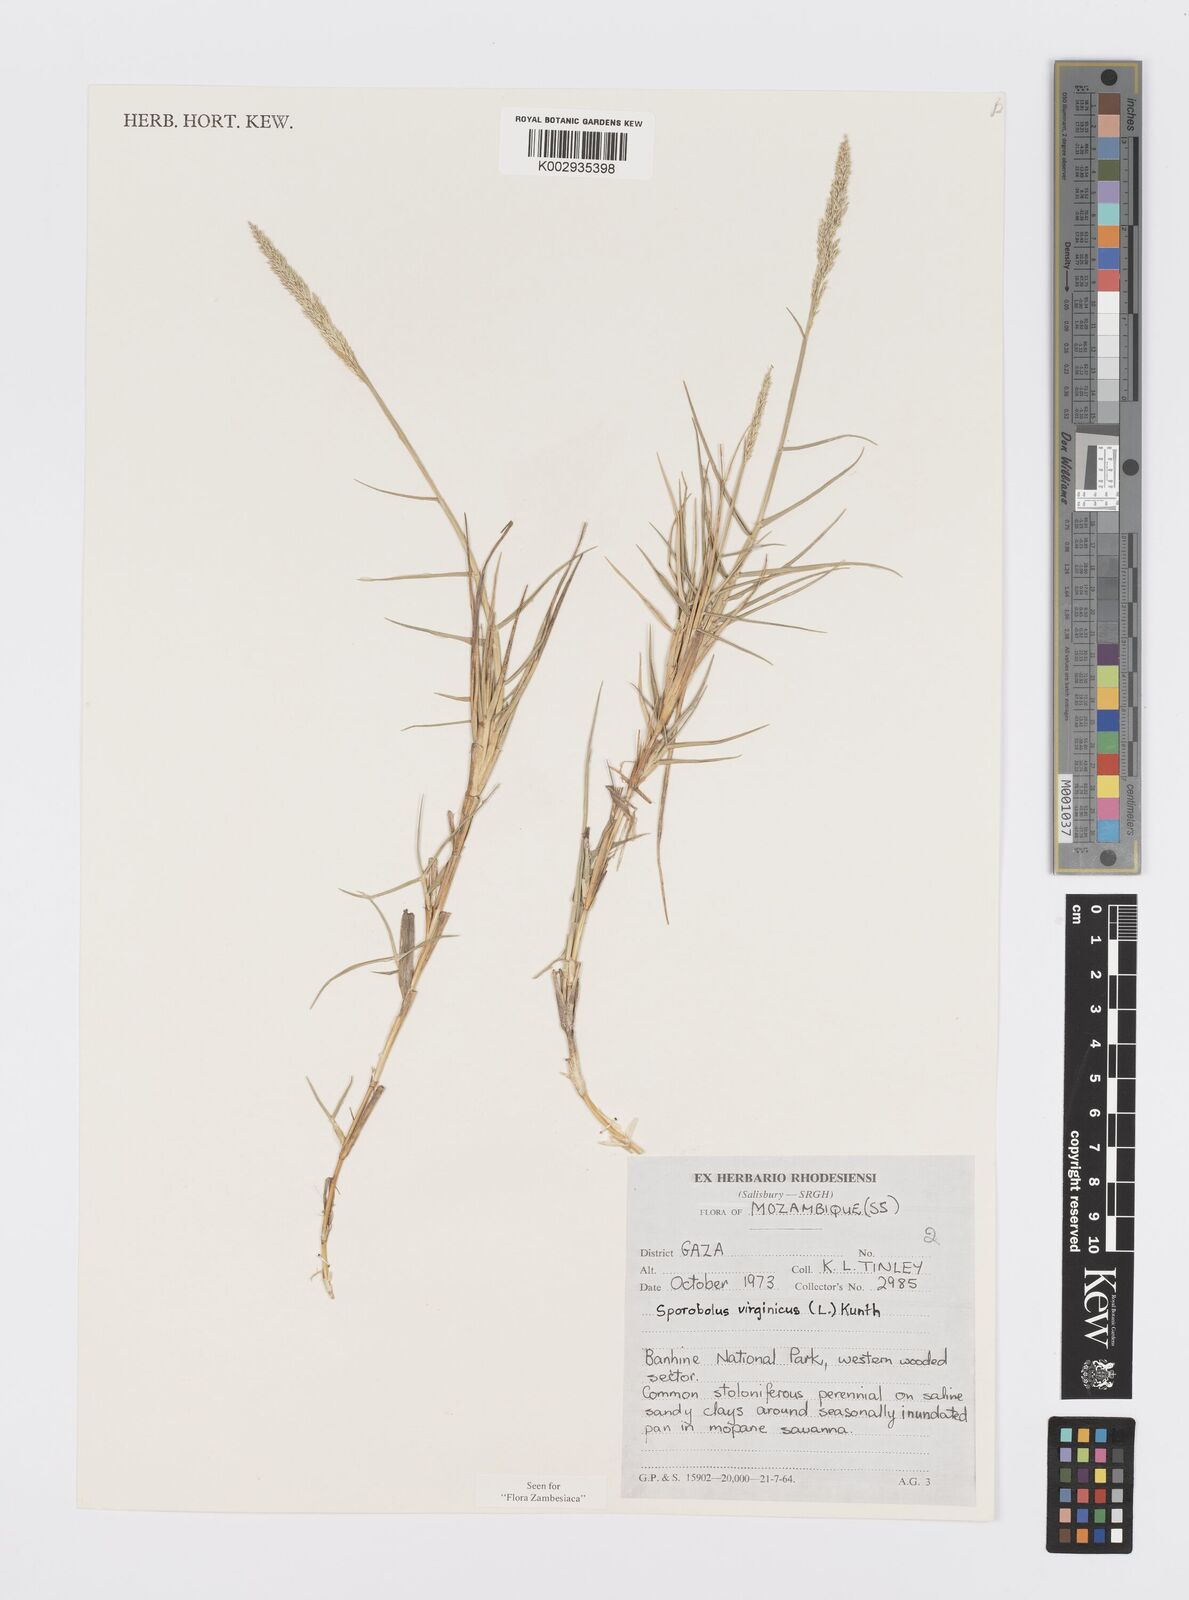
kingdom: Plantae
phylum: Tracheophyta
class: Liliopsida
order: Poales
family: Poaceae
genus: Sporobolus
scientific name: Sporobolus virginicus
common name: Beach dropseed
